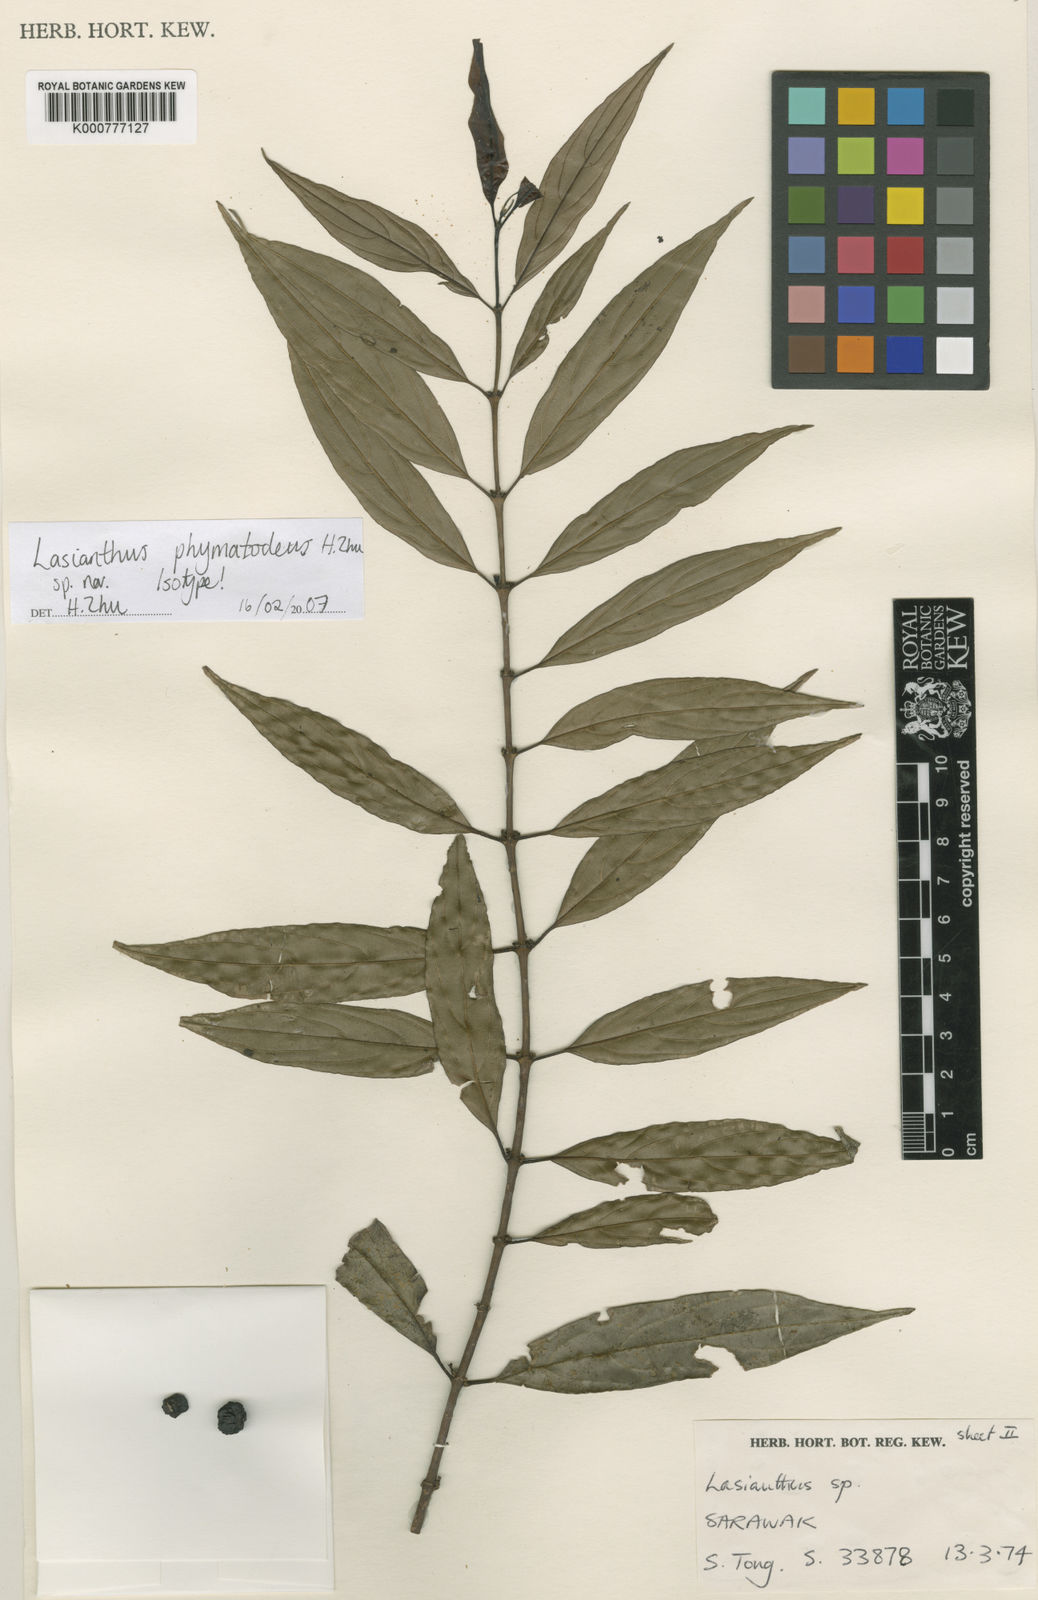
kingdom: Plantae
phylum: Tracheophyta
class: Magnoliopsida
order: Gentianales
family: Rubiaceae
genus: Lasianthus
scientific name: Lasianthus phymatodeus
